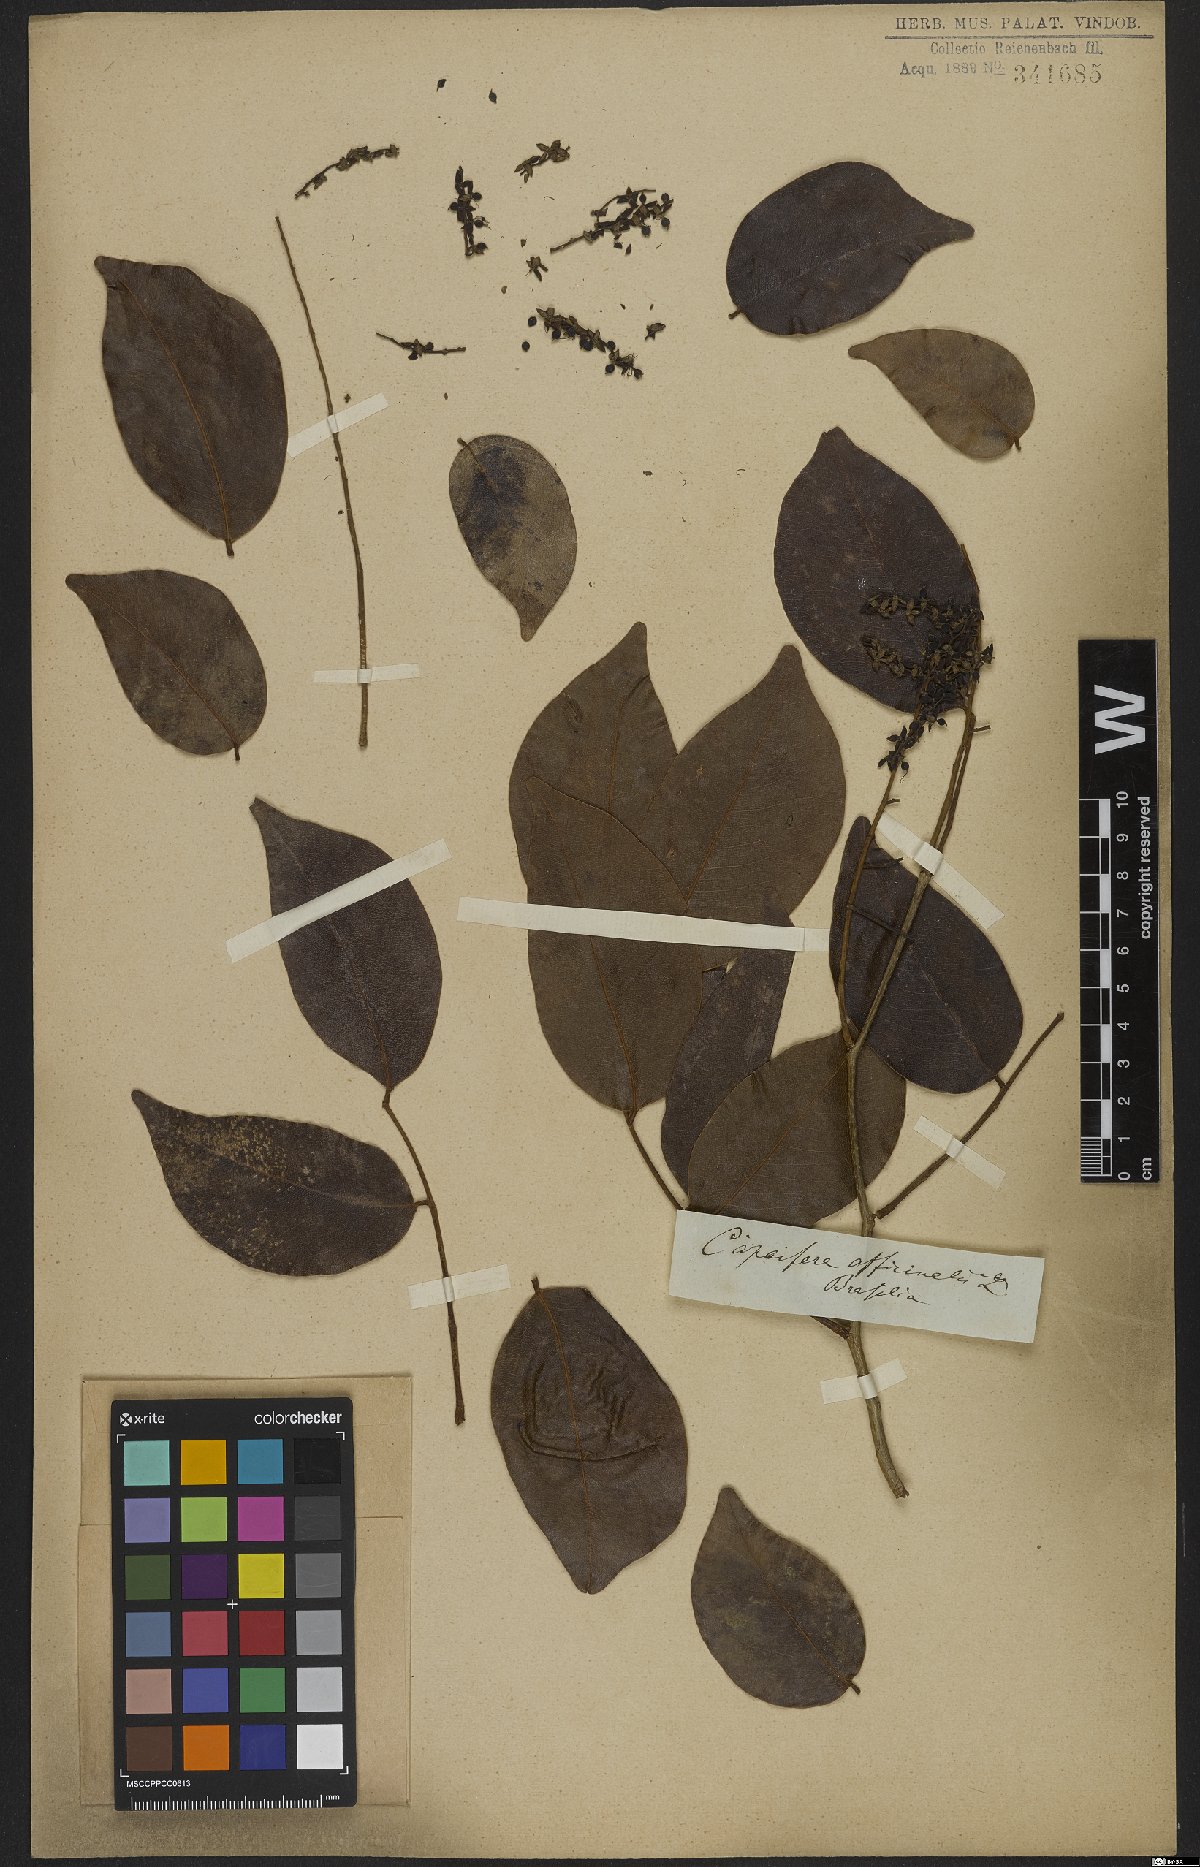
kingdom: Plantae
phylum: Tracheophyta
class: Magnoliopsida
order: Fabales
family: Fabaceae
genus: Copaifera
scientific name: Copaifera officinalis
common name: Copaiba
